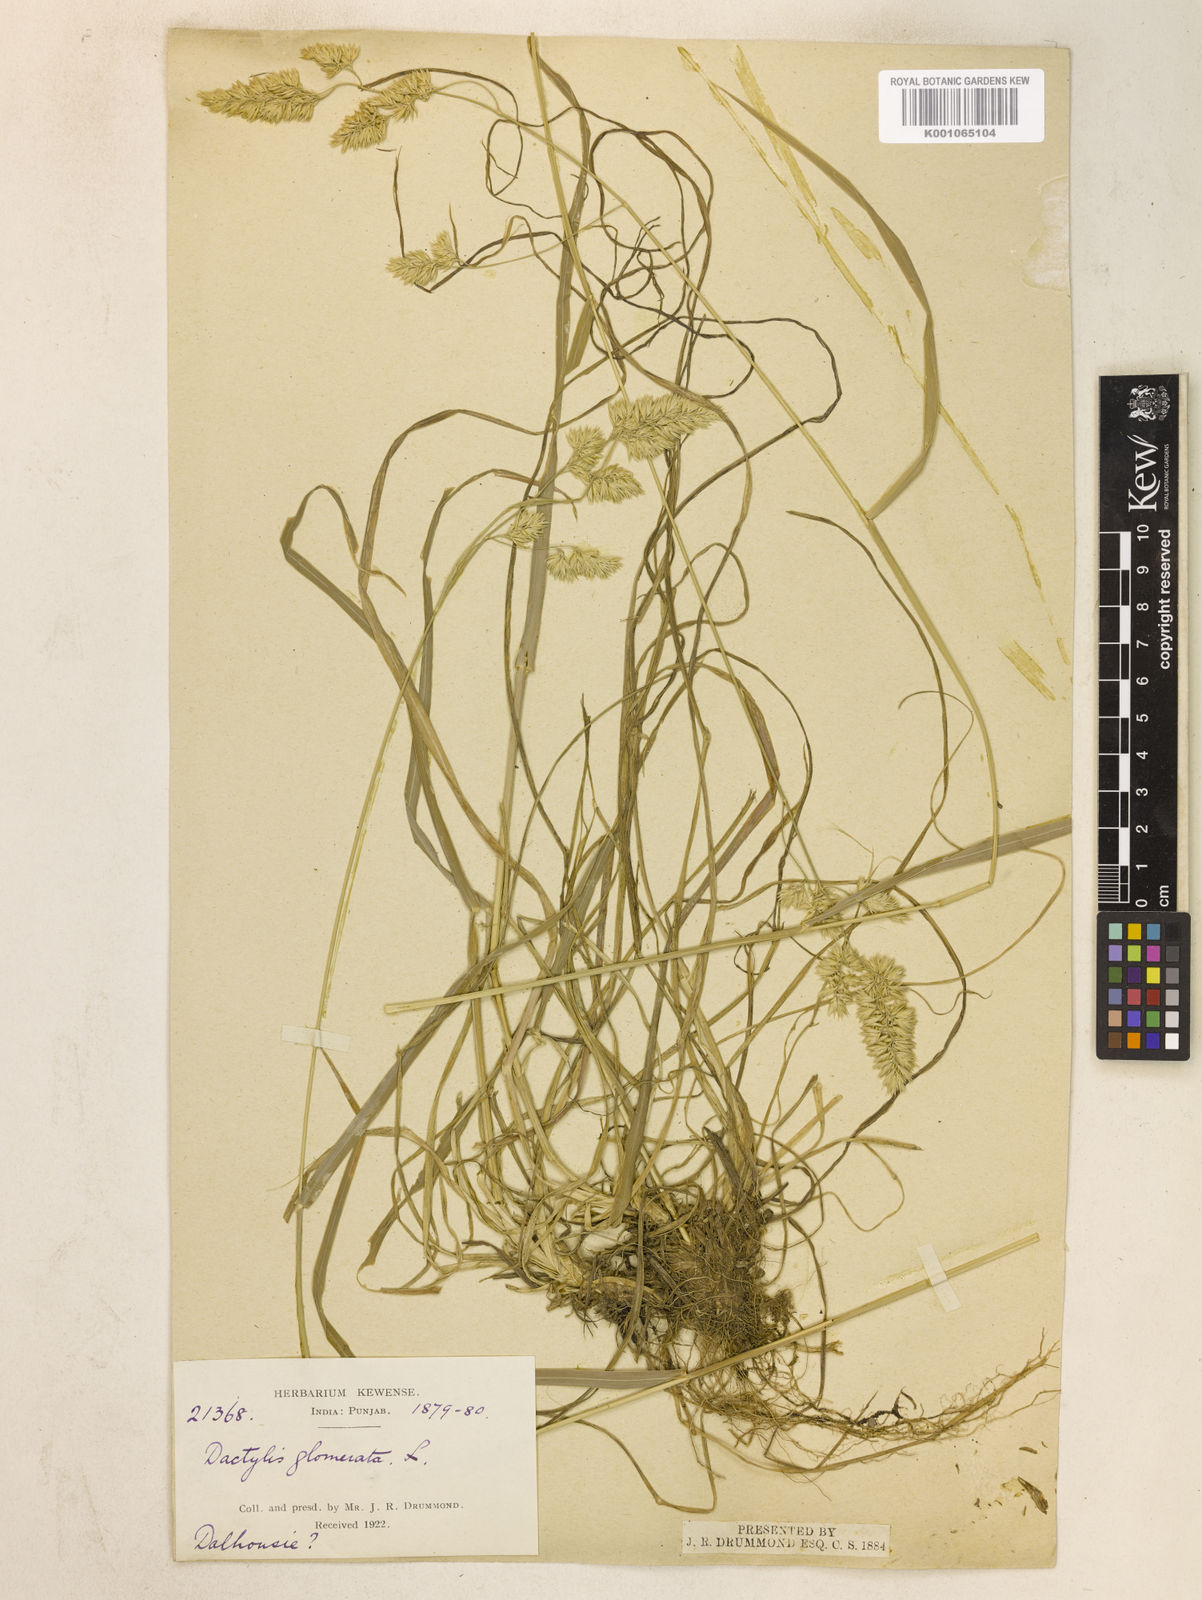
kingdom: Plantae
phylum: Tracheophyta
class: Liliopsida
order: Poales
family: Poaceae
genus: Dactylis
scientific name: Dactylis glomerata
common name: Orchardgrass
